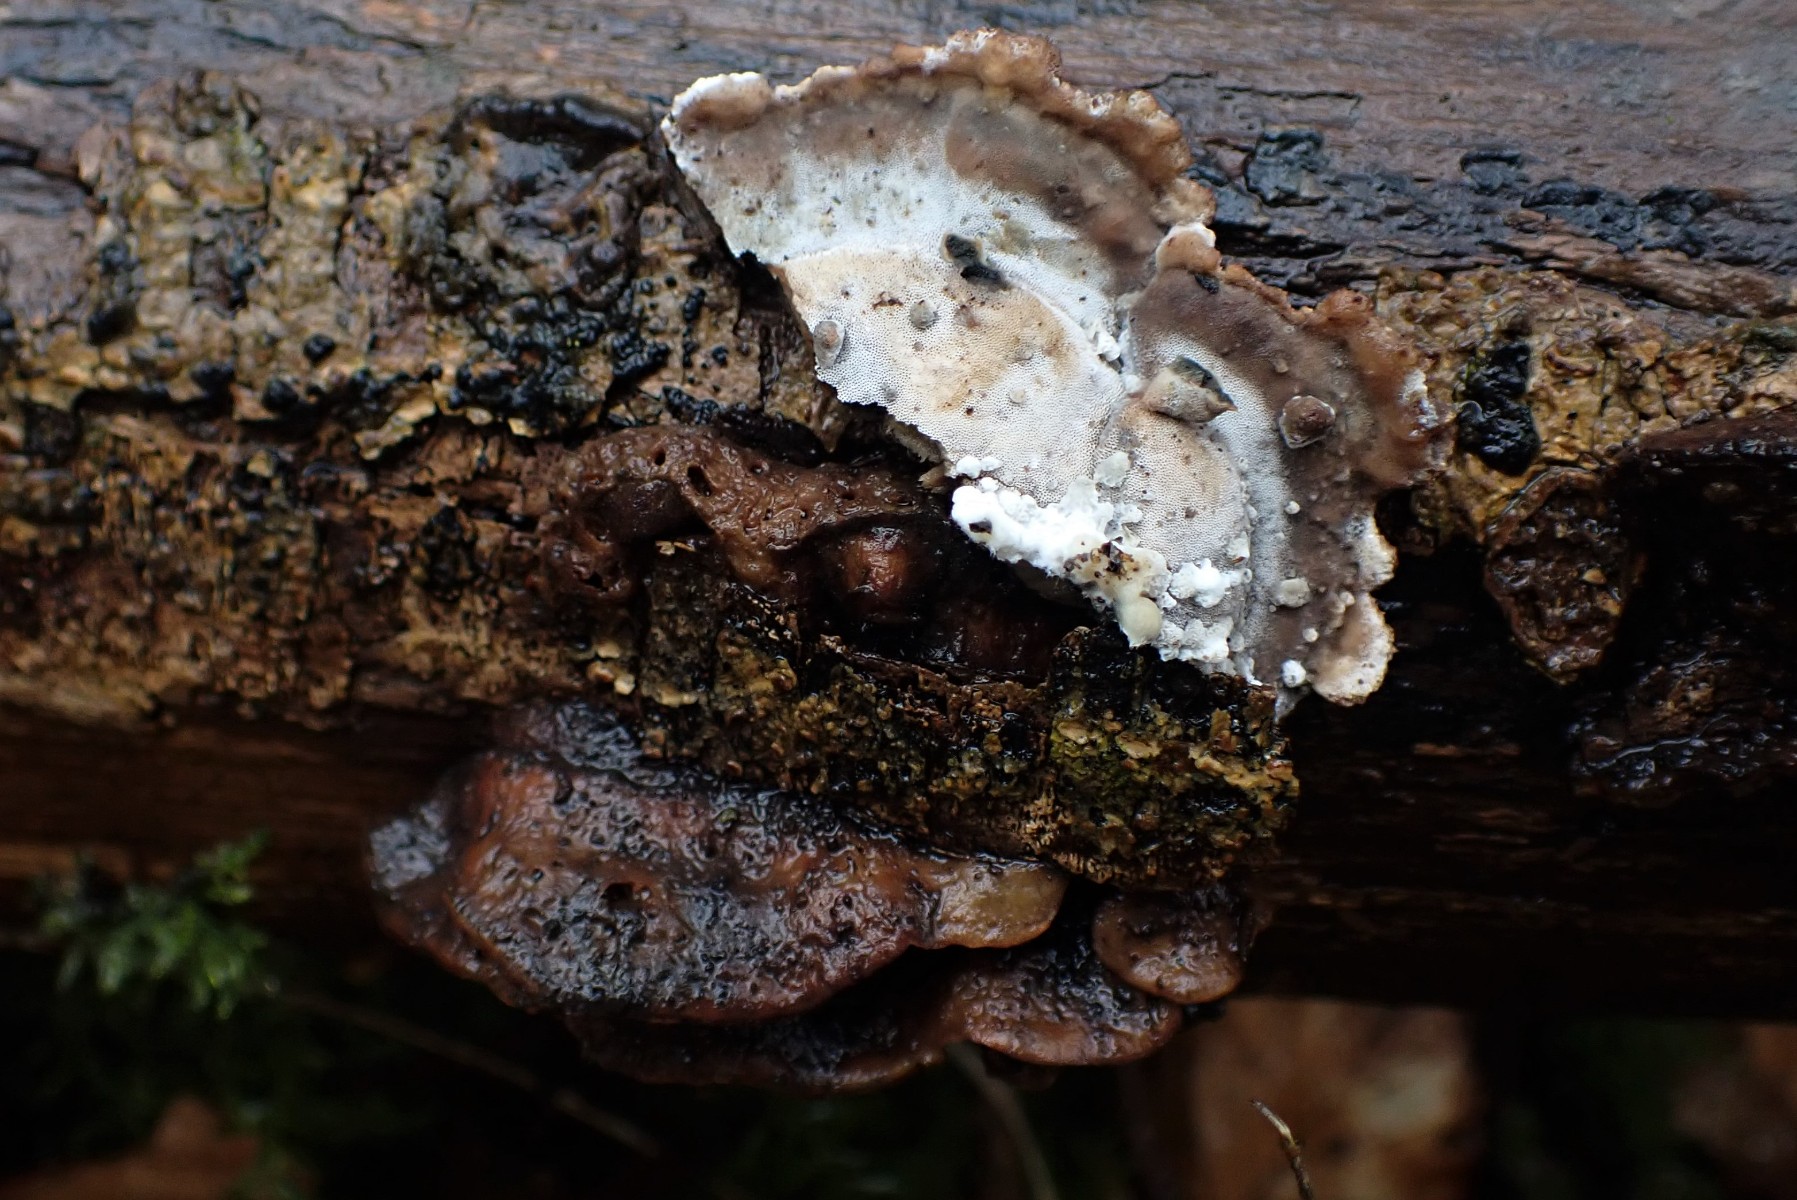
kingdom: Fungi
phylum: Basidiomycota
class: Agaricomycetes
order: Polyporales
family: Incrustoporiaceae
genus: Skeletocutis
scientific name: Skeletocutis nemoralis
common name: stor krystalporesvamp
